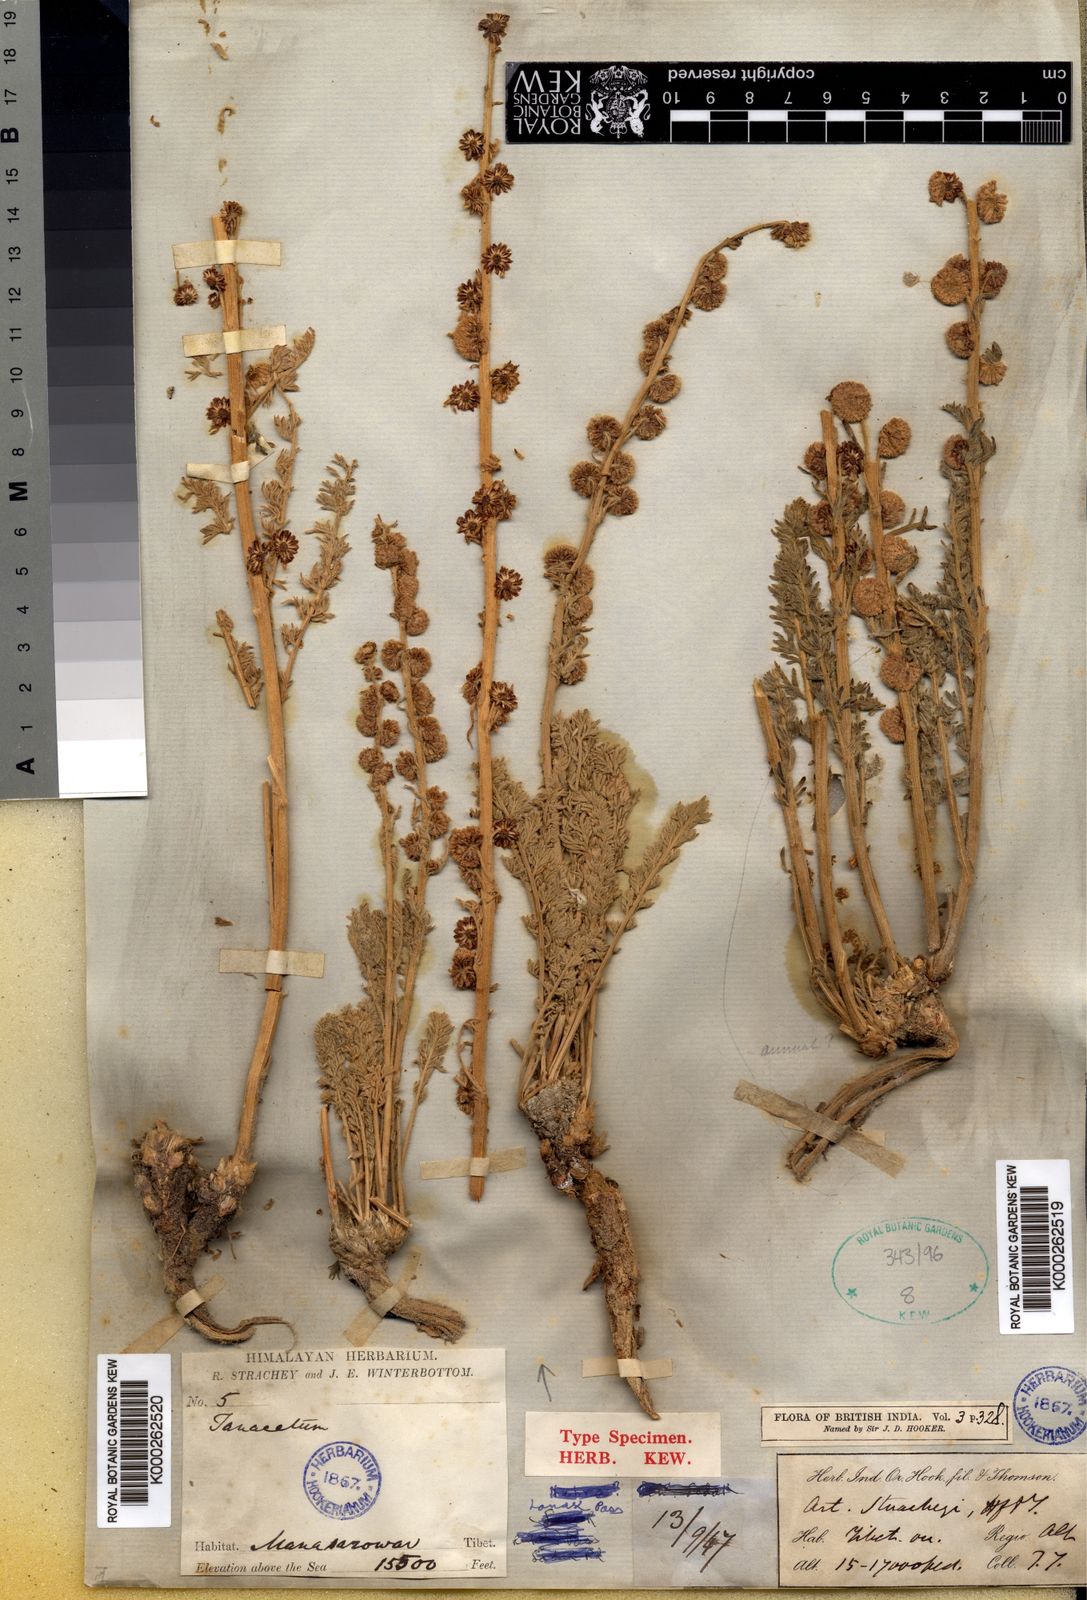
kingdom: Plantae
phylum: Tracheophyta
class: Magnoliopsida
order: Asterales
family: Asteraceae
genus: Artemisiella
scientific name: Artemisiella stracheyi
